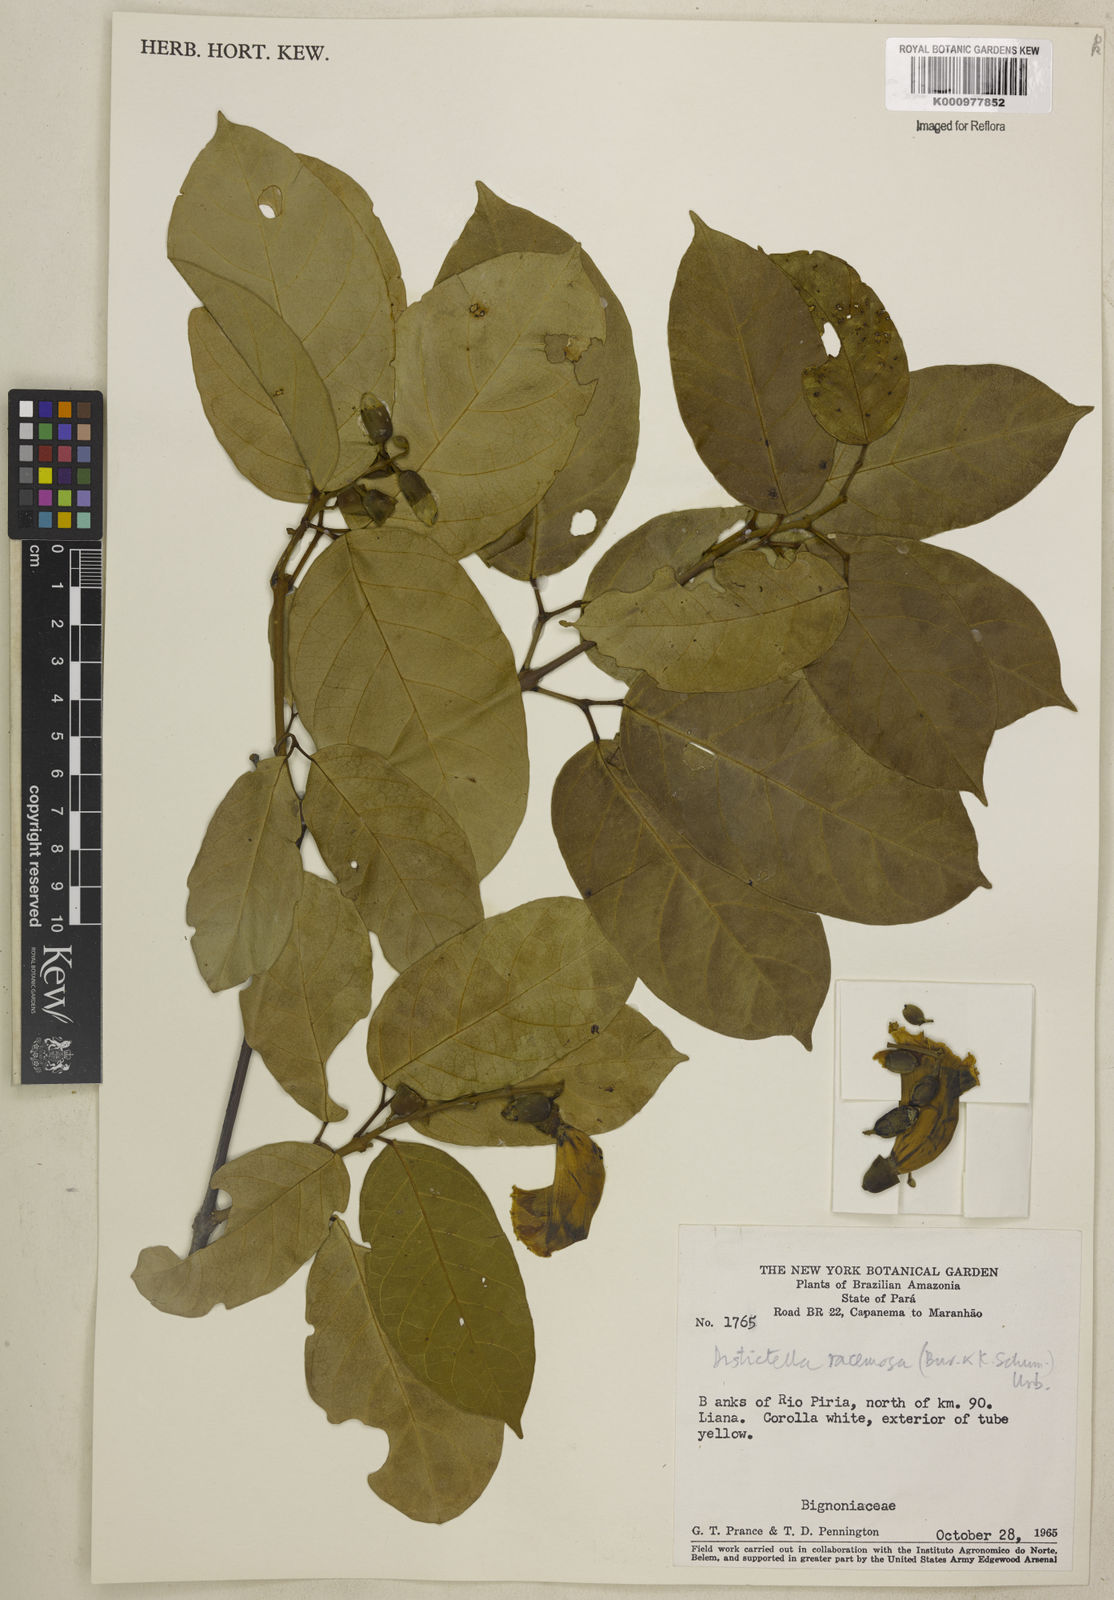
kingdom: Plantae
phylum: Tracheophyta
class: Magnoliopsida
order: Lamiales
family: Bignoniaceae
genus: Amphilophium
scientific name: Amphilophium racemosum
